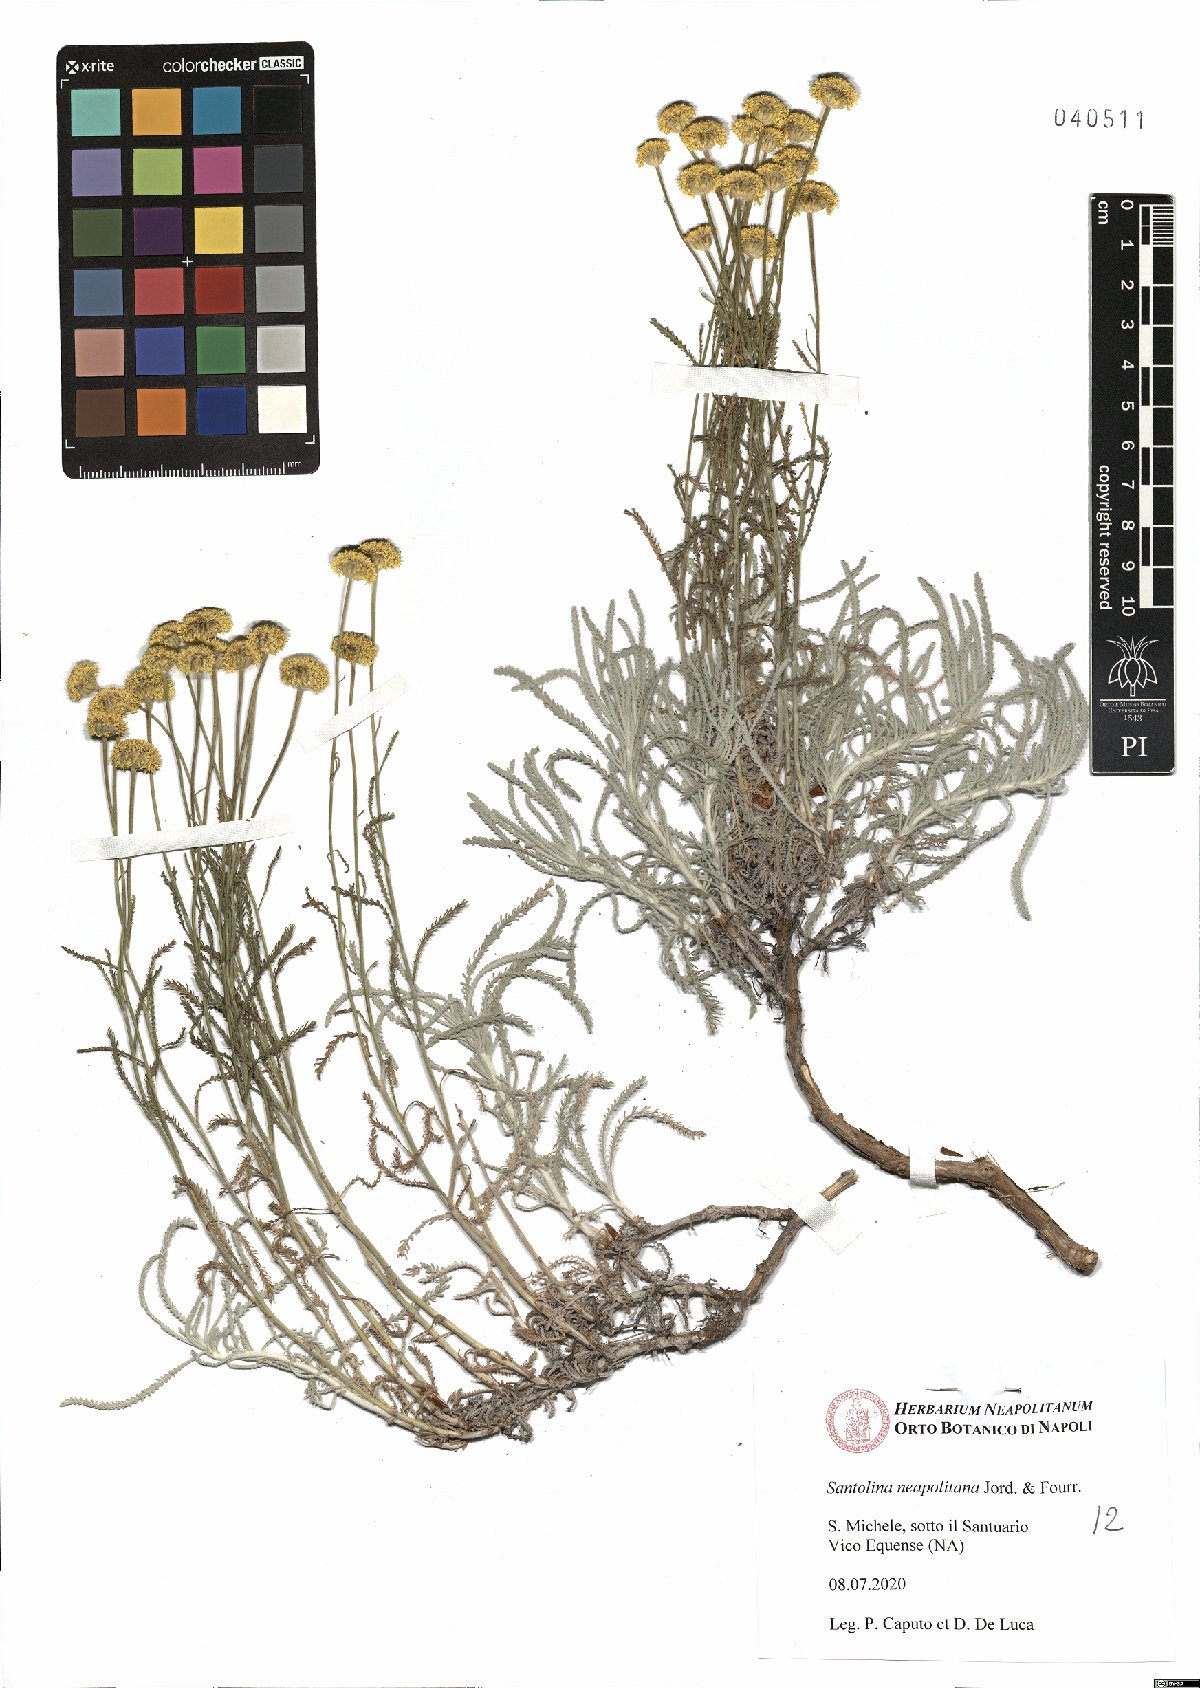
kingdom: Plantae
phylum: Tracheophyta
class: Magnoliopsida
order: Asterales
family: Asteraceae
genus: Santolina
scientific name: Santolina neapolitana
